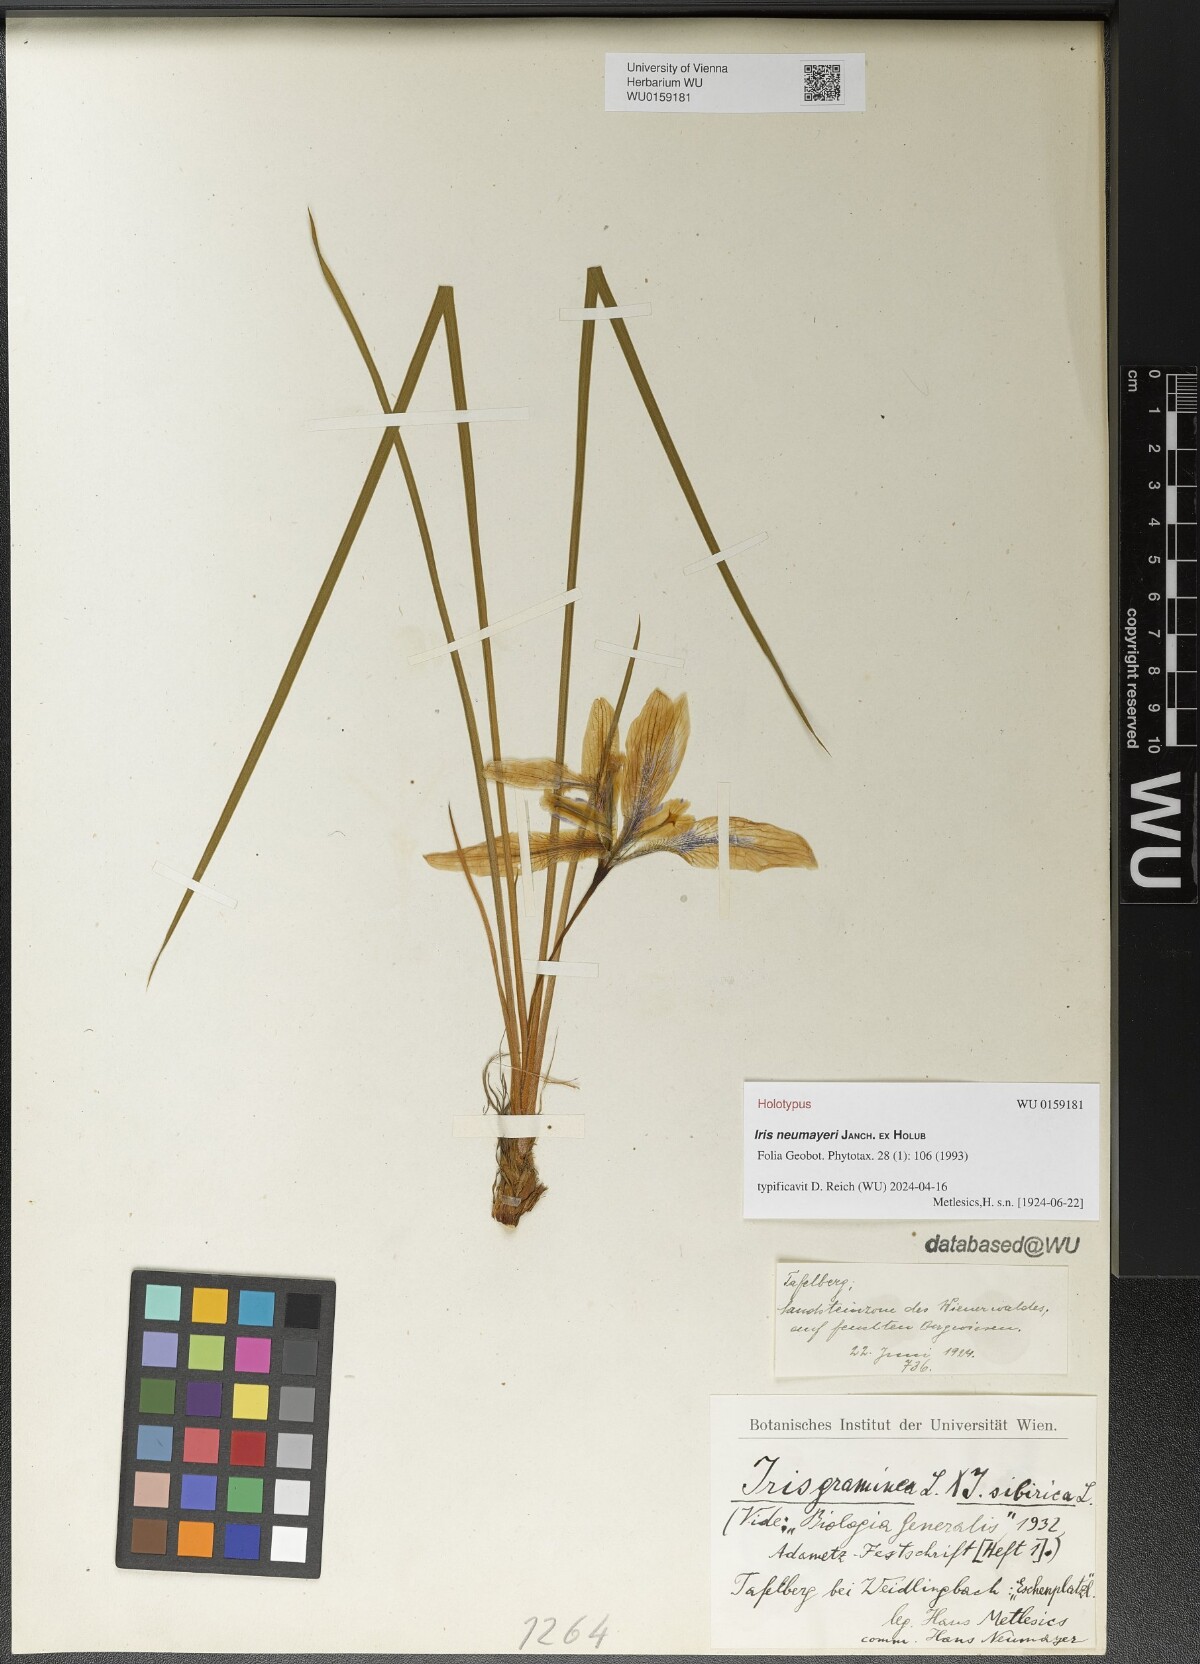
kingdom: Plantae
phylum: Tracheophyta
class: Liliopsida
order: Asparagales
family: Iridaceae
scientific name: Iridaceae
